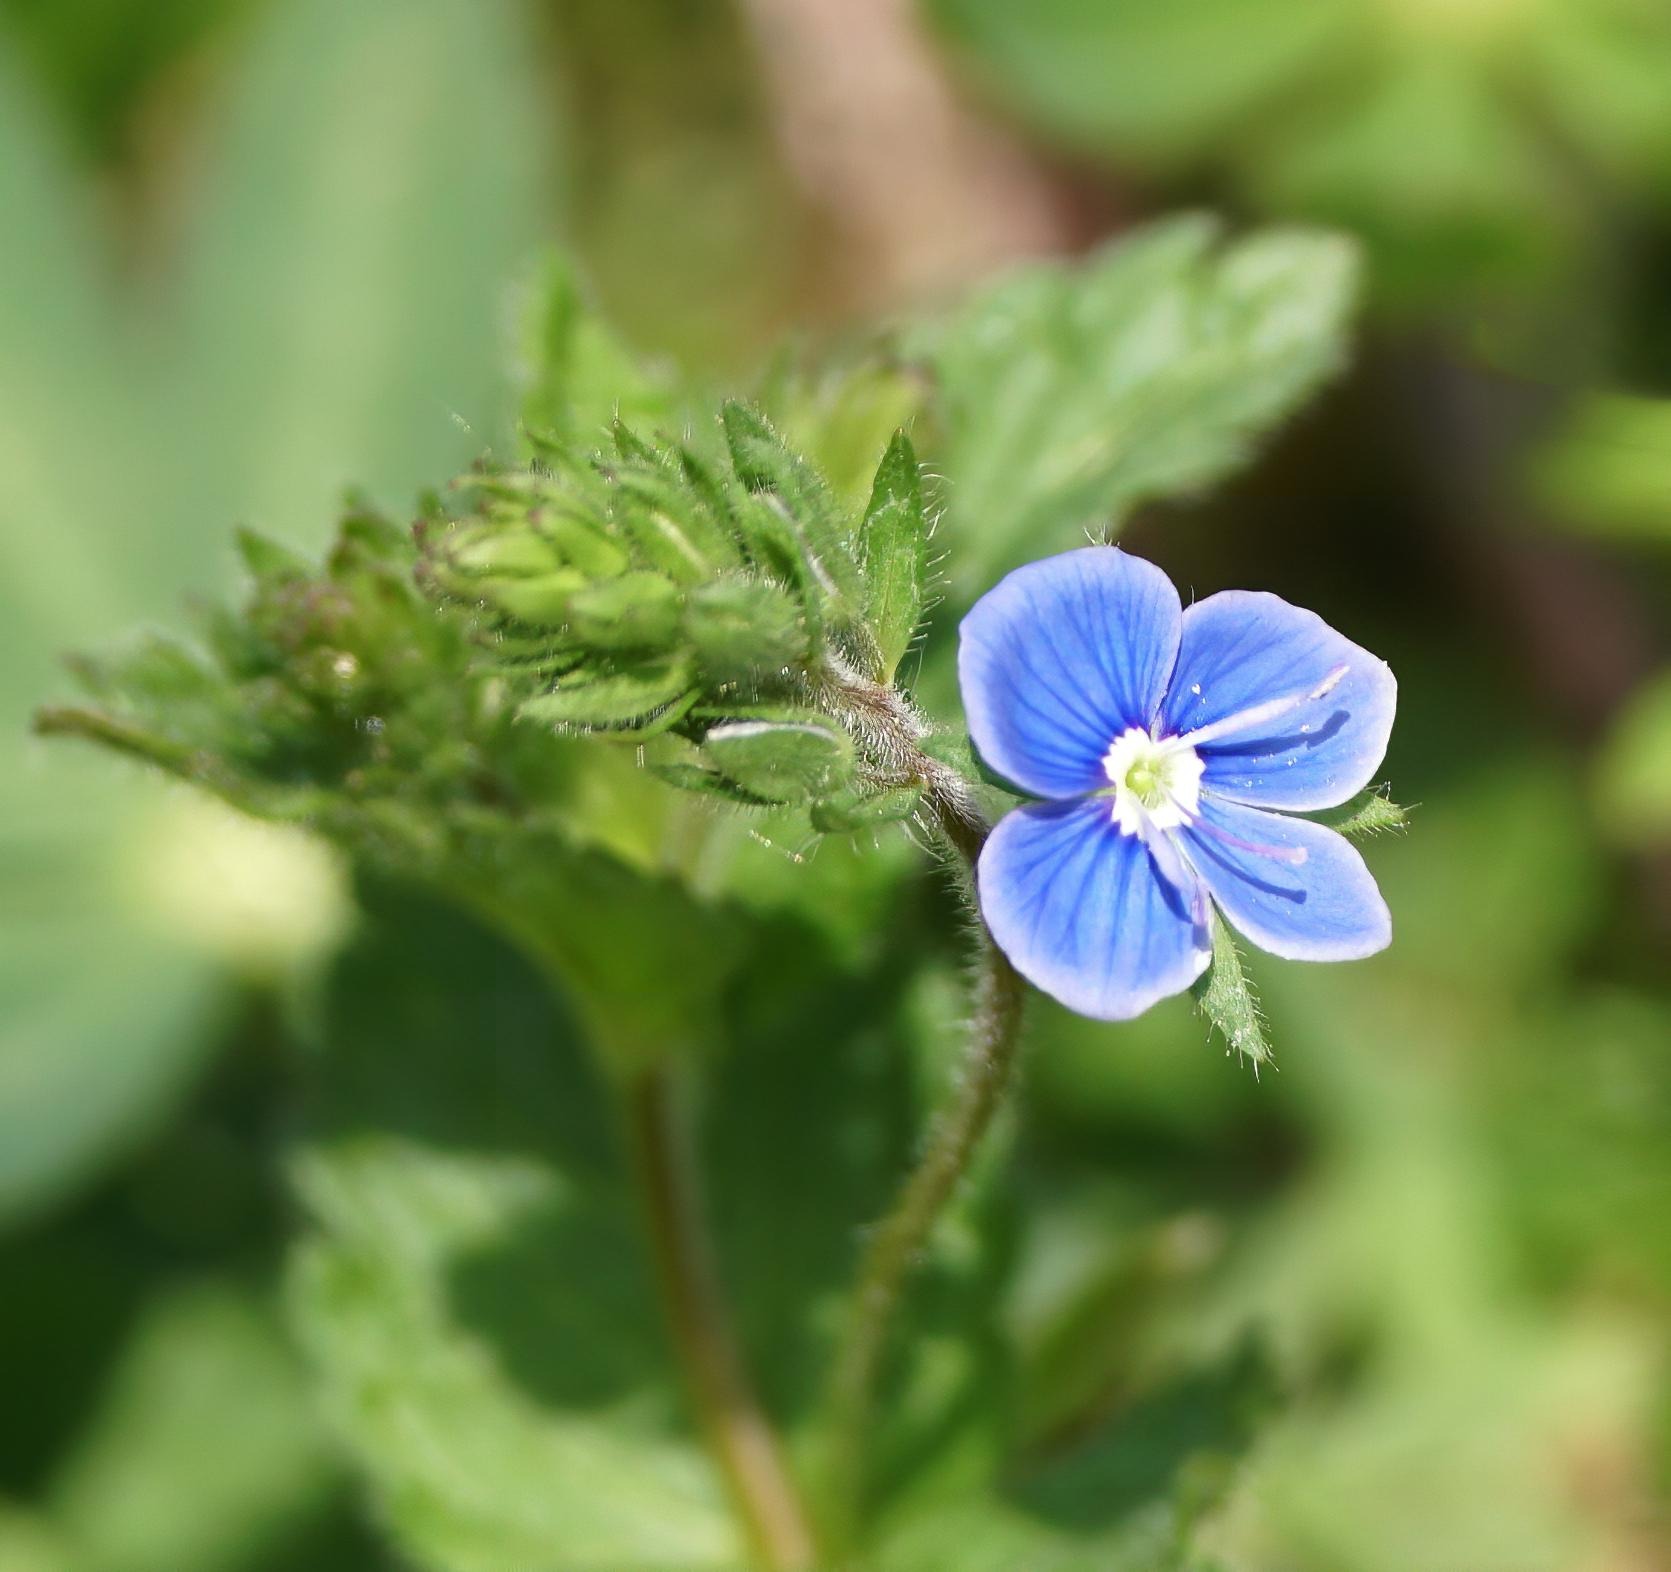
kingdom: Plantae
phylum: Tracheophyta
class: Magnoliopsida
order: Lamiales
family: Plantaginaceae
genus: Veronica
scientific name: Veronica chamaedrys
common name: Tveskægget ærenpris
